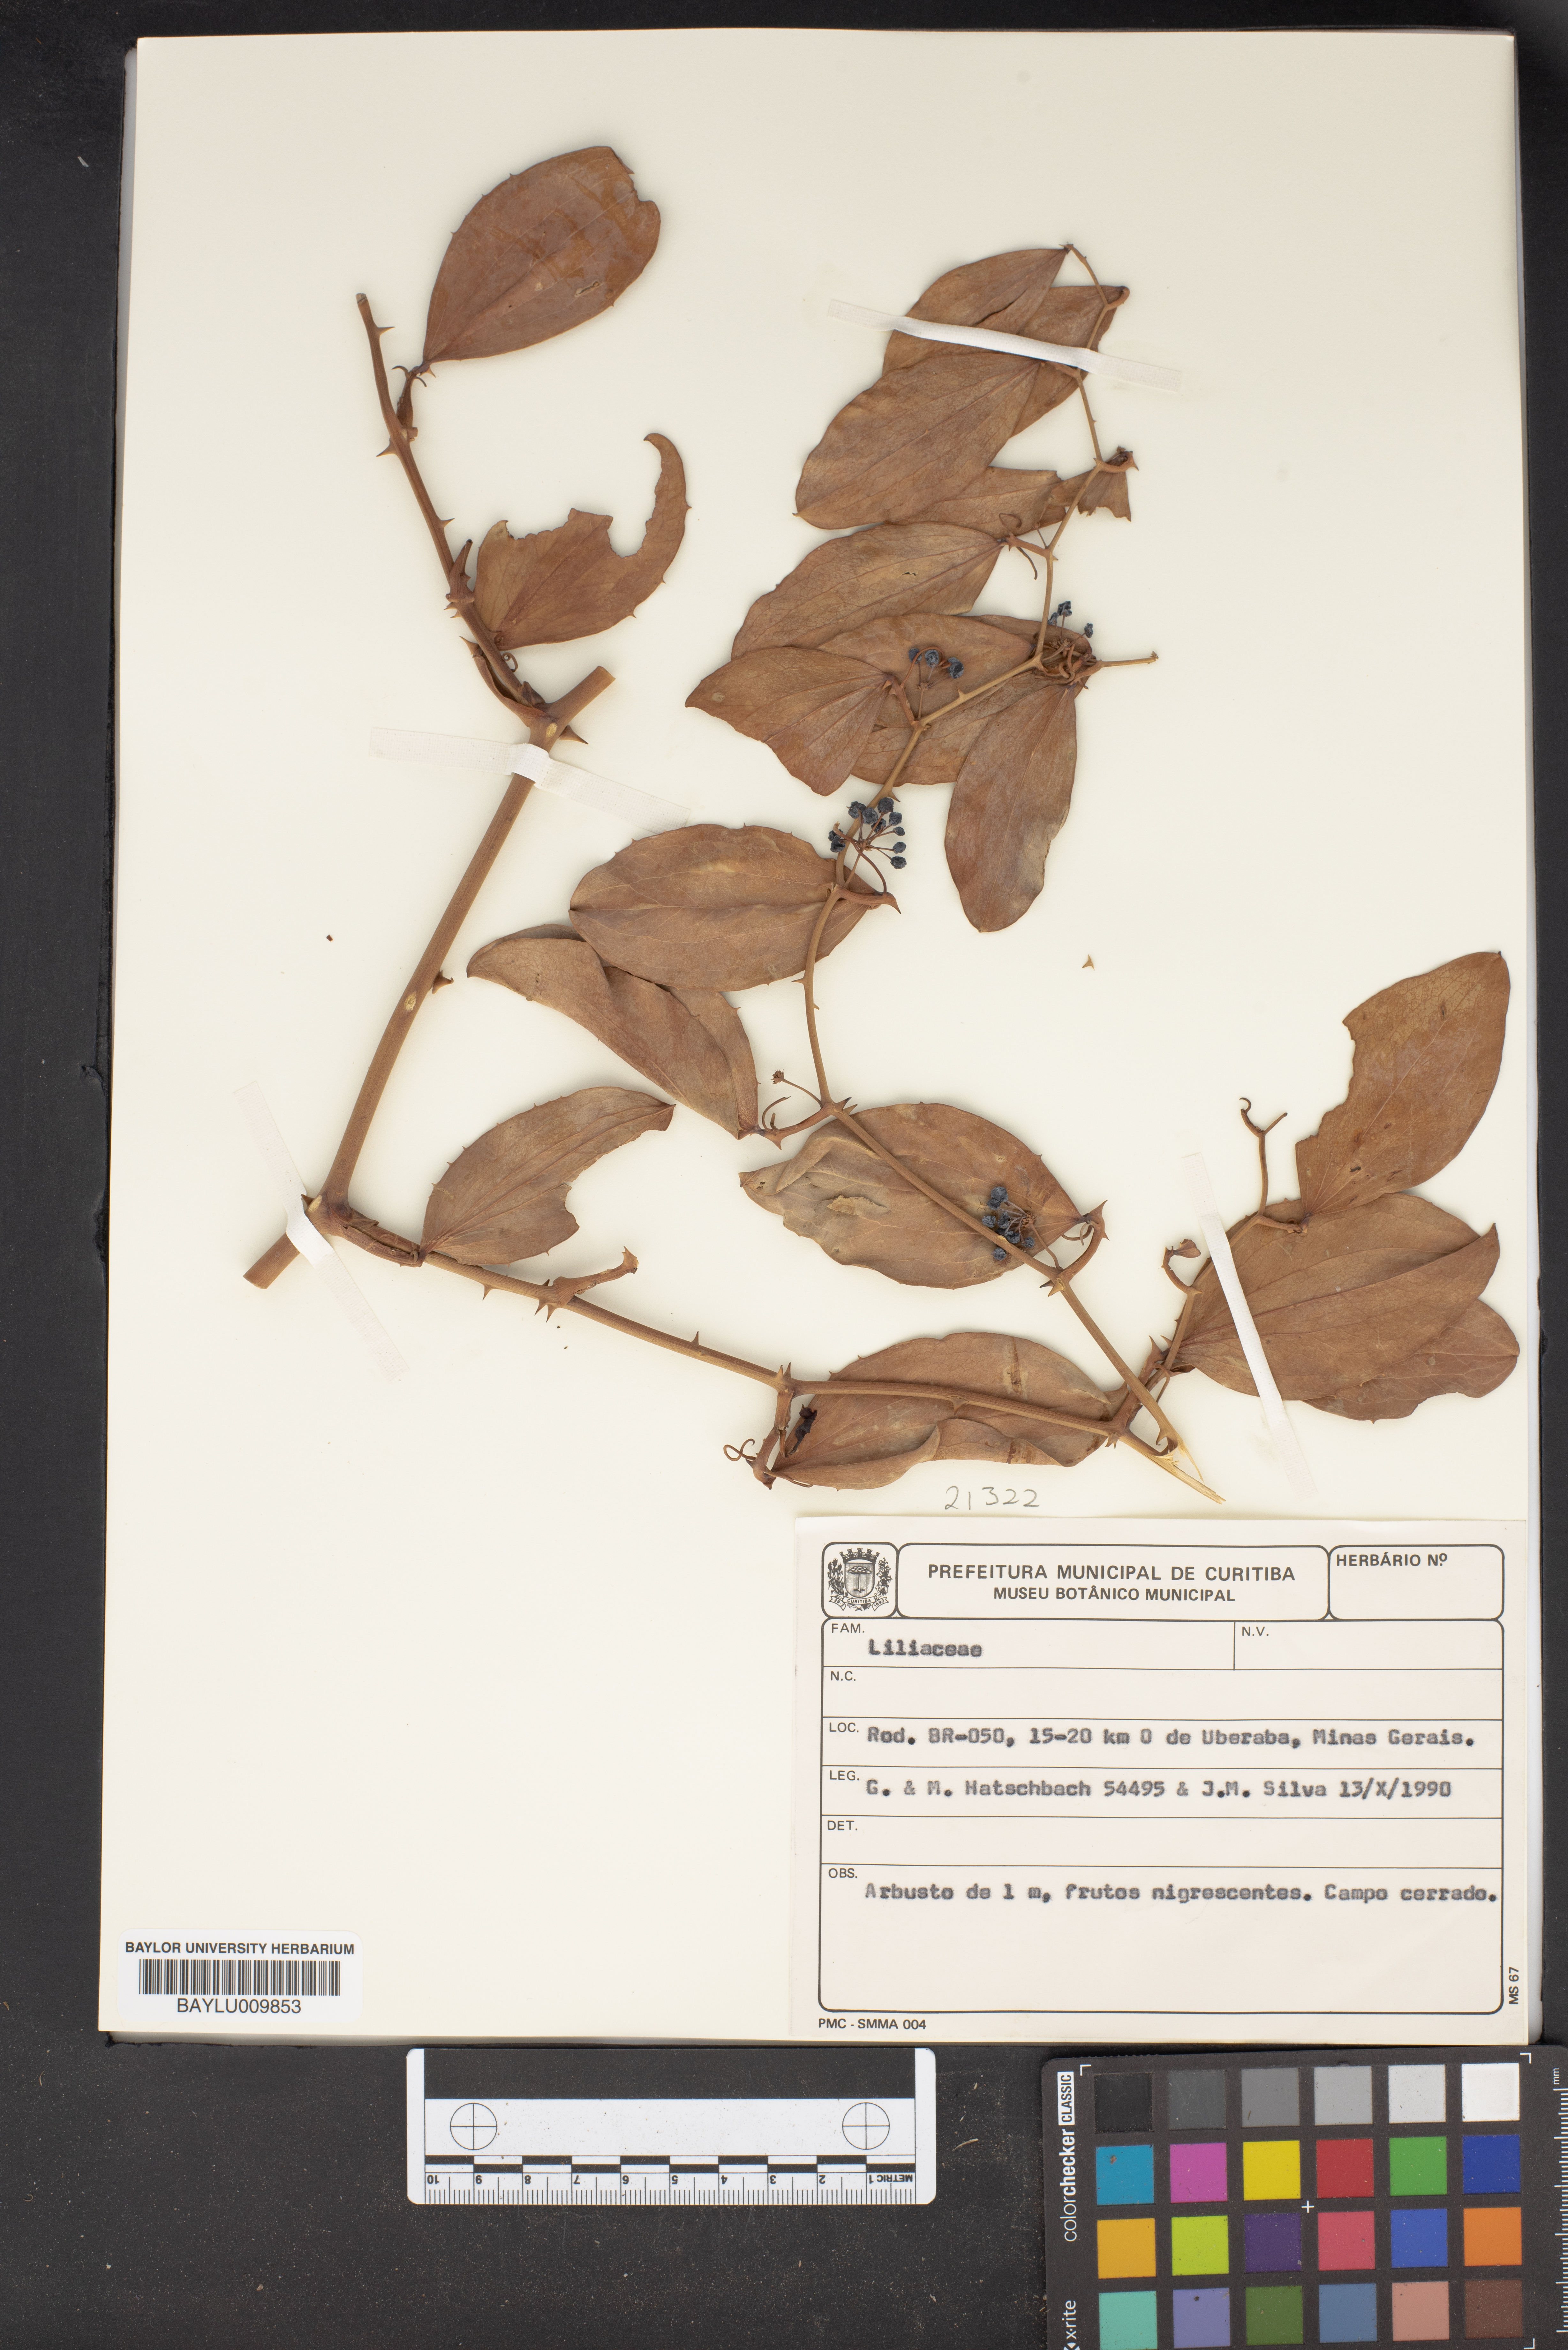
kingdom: Plantae
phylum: Tracheophyta
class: Liliopsida
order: Liliales
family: Liliaceae
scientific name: Liliaceae
